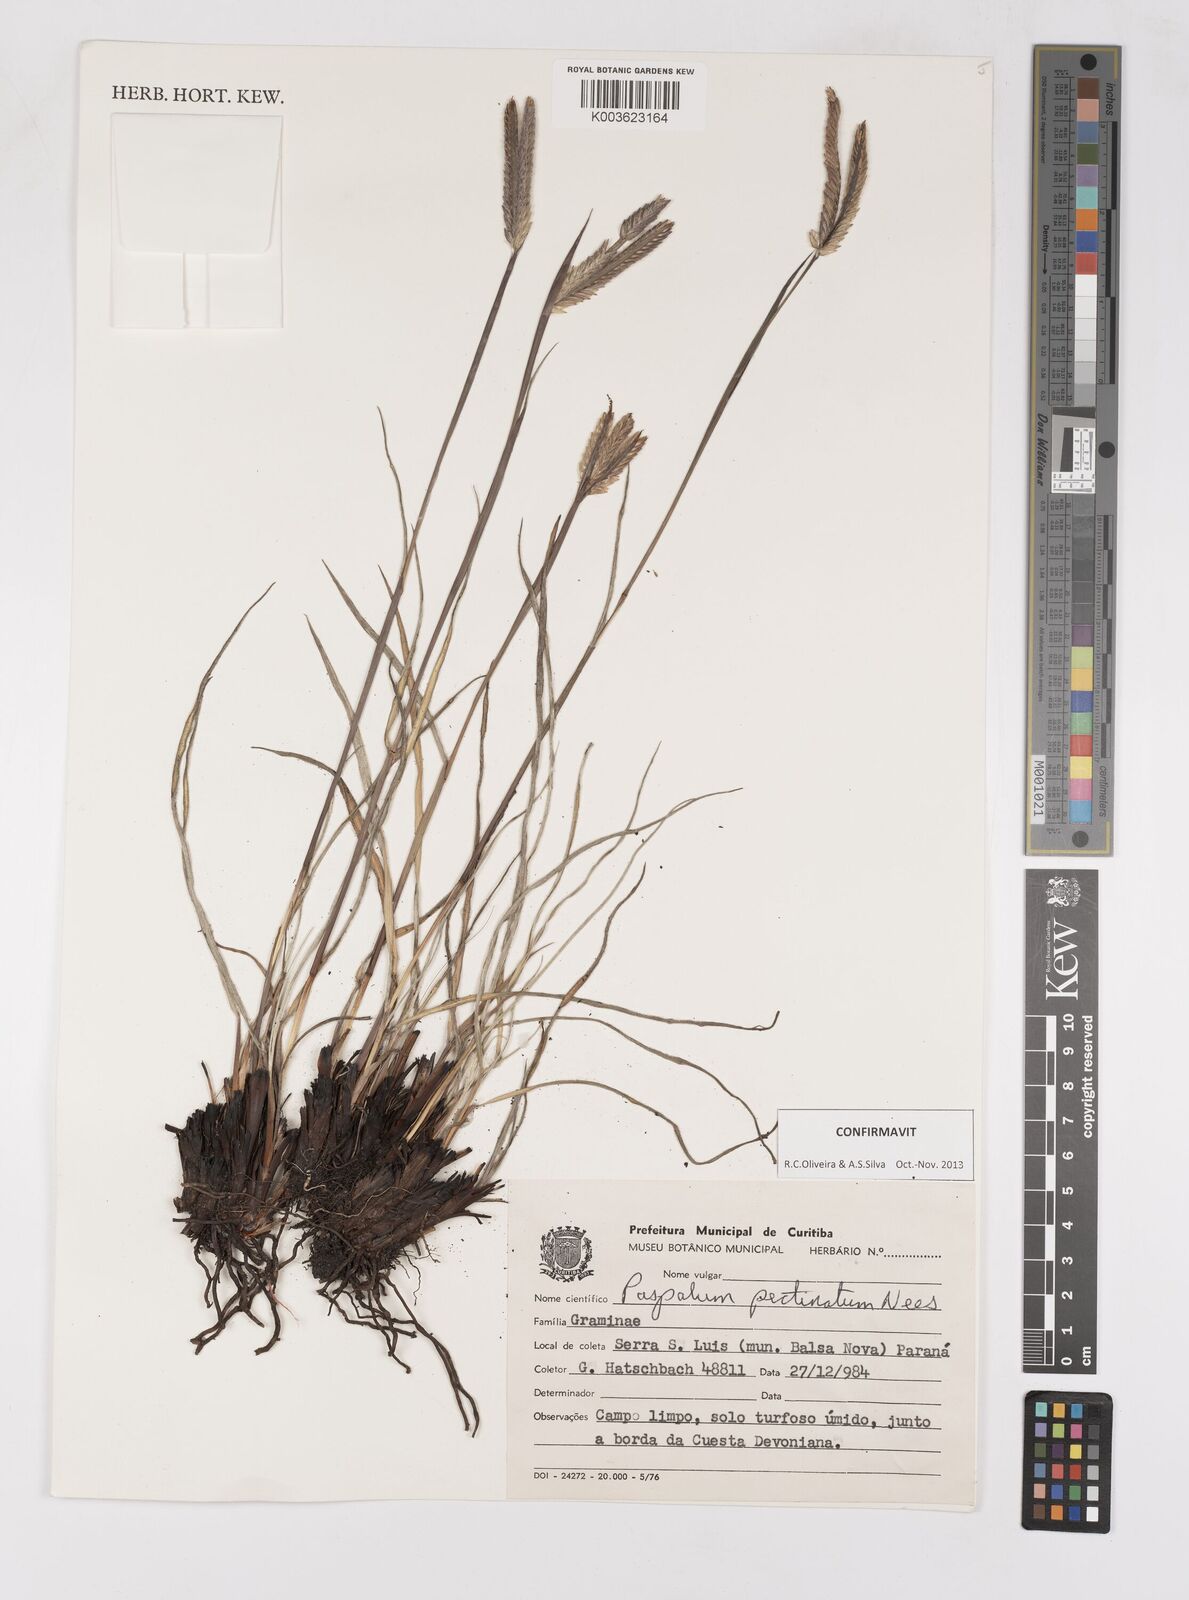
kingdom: Plantae
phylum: Tracheophyta
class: Liliopsida
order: Poales
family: Poaceae
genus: Paspalum
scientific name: Paspalum pectinatum
